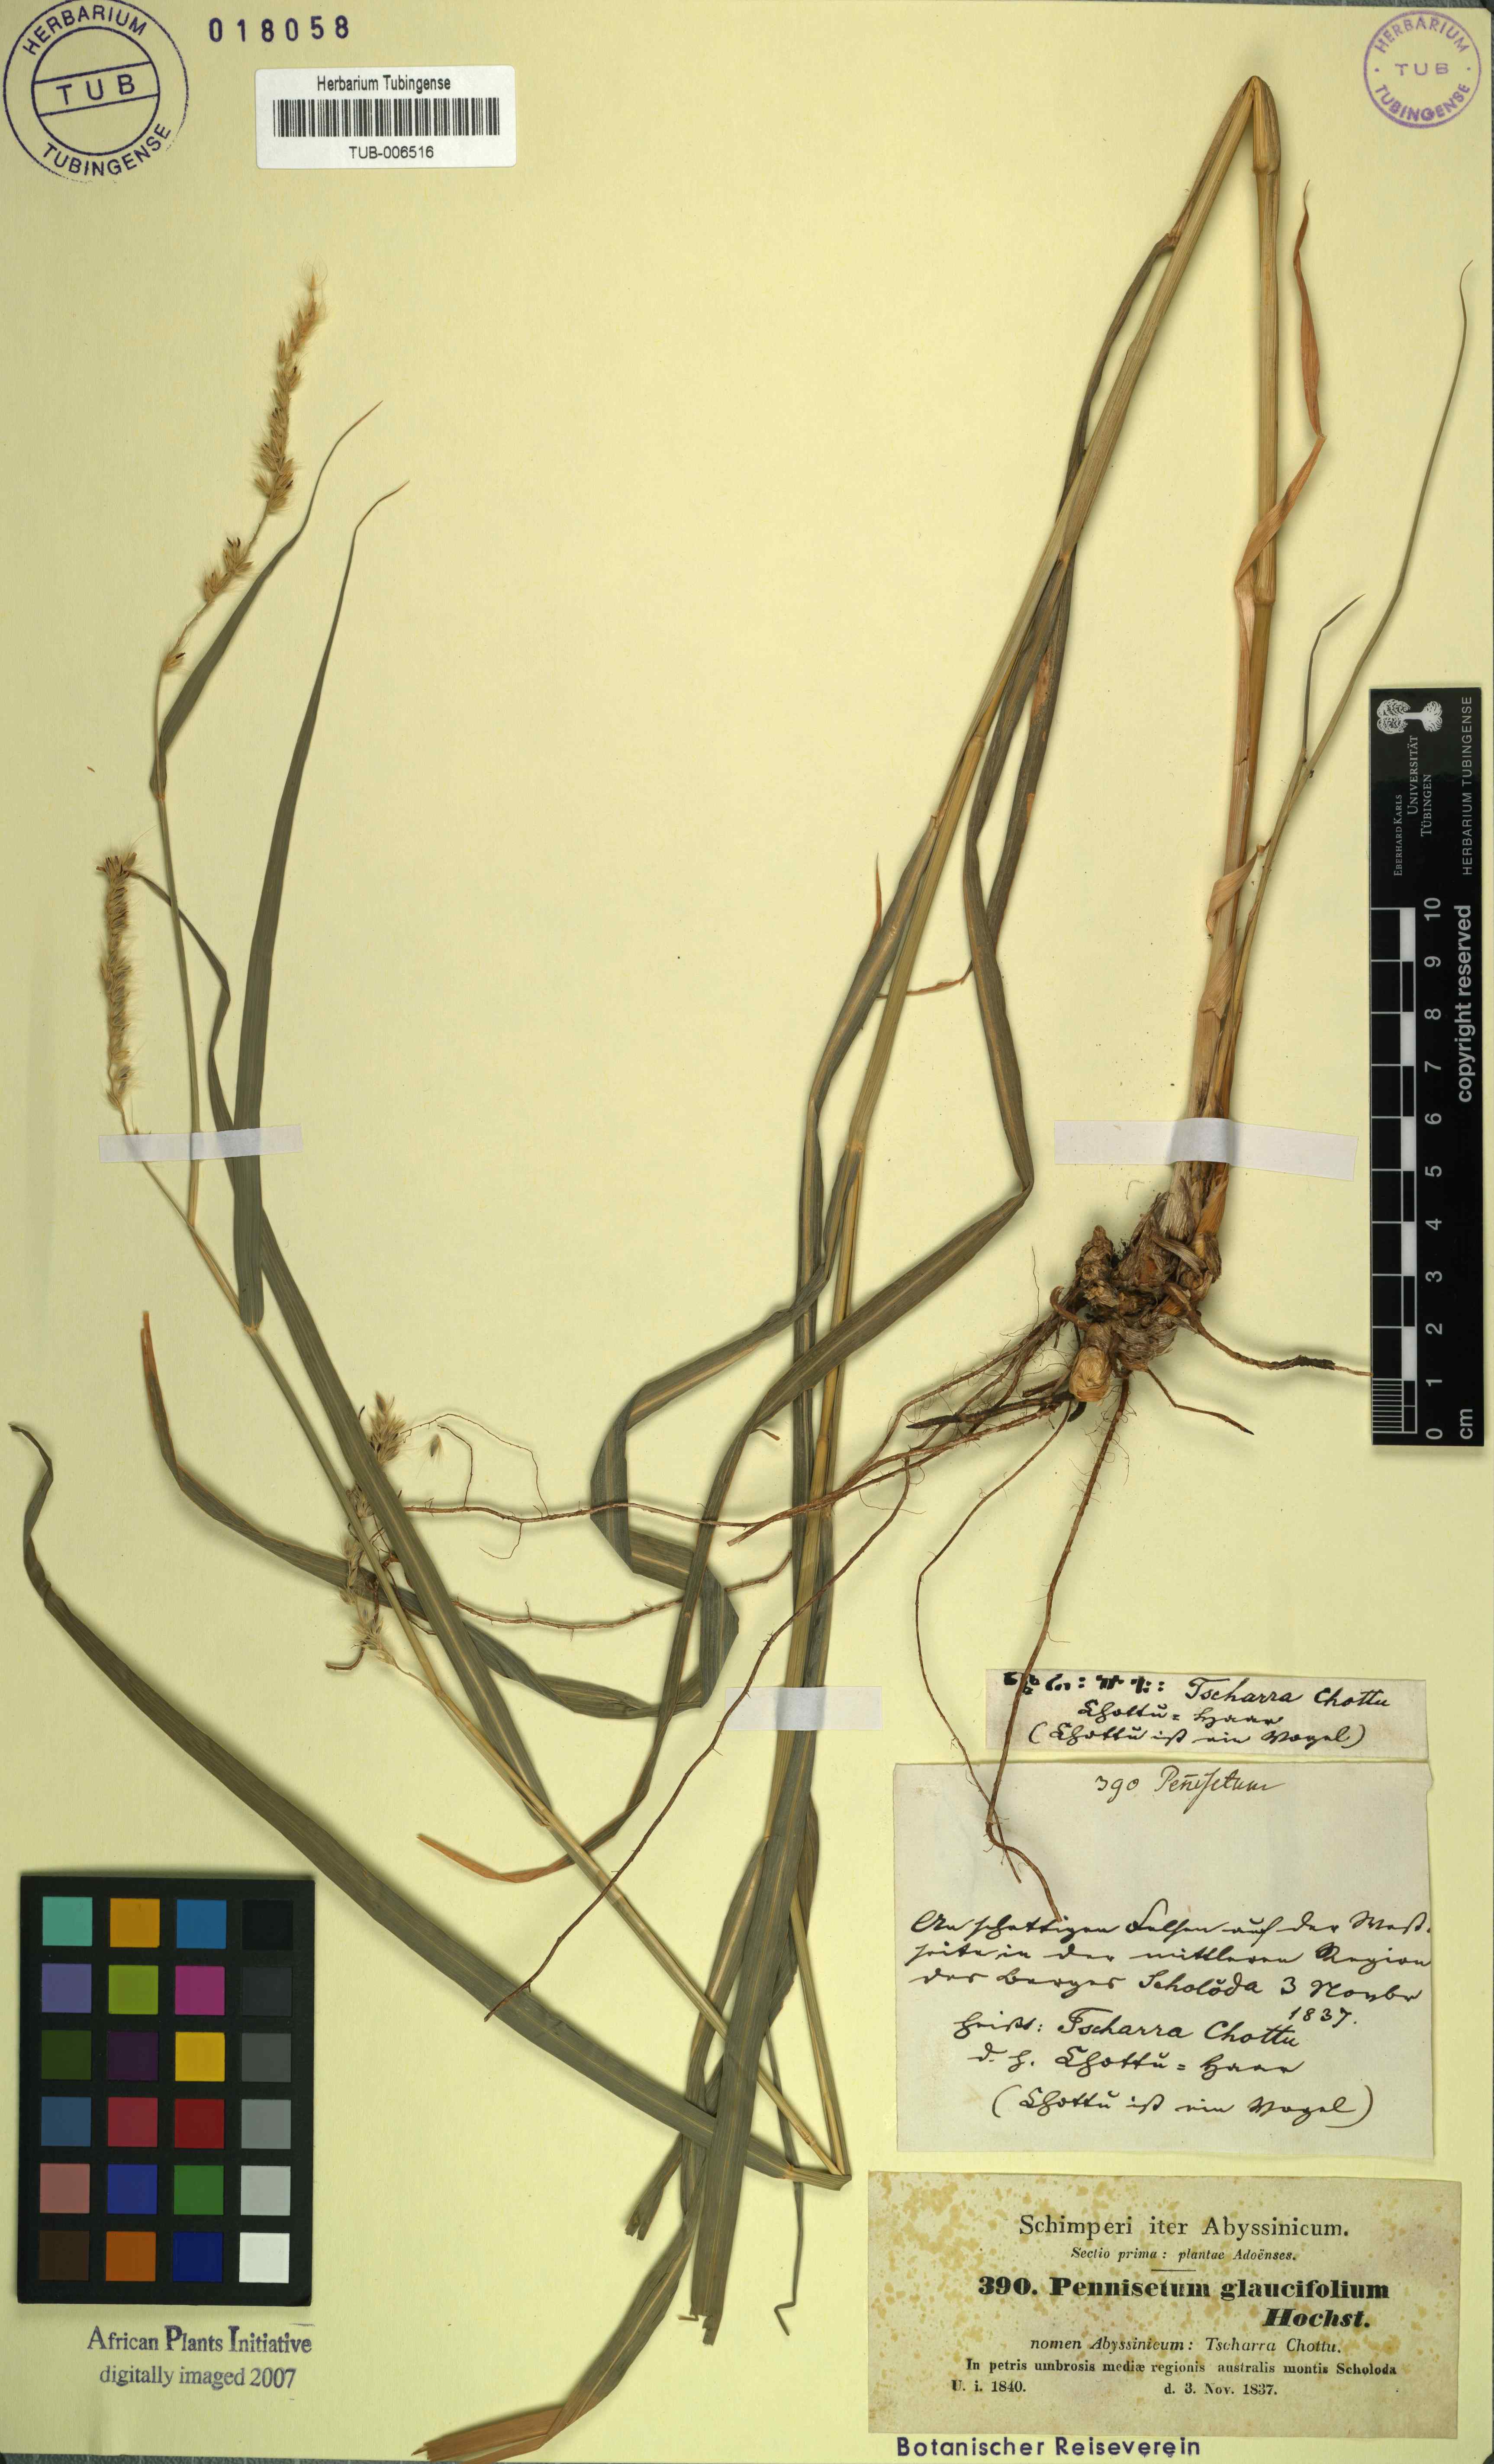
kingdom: Plantae
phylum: Tracheophyta
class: Liliopsida
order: Poales
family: Poaceae
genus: Cenchrus
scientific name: Cenchrus glaucifolius
